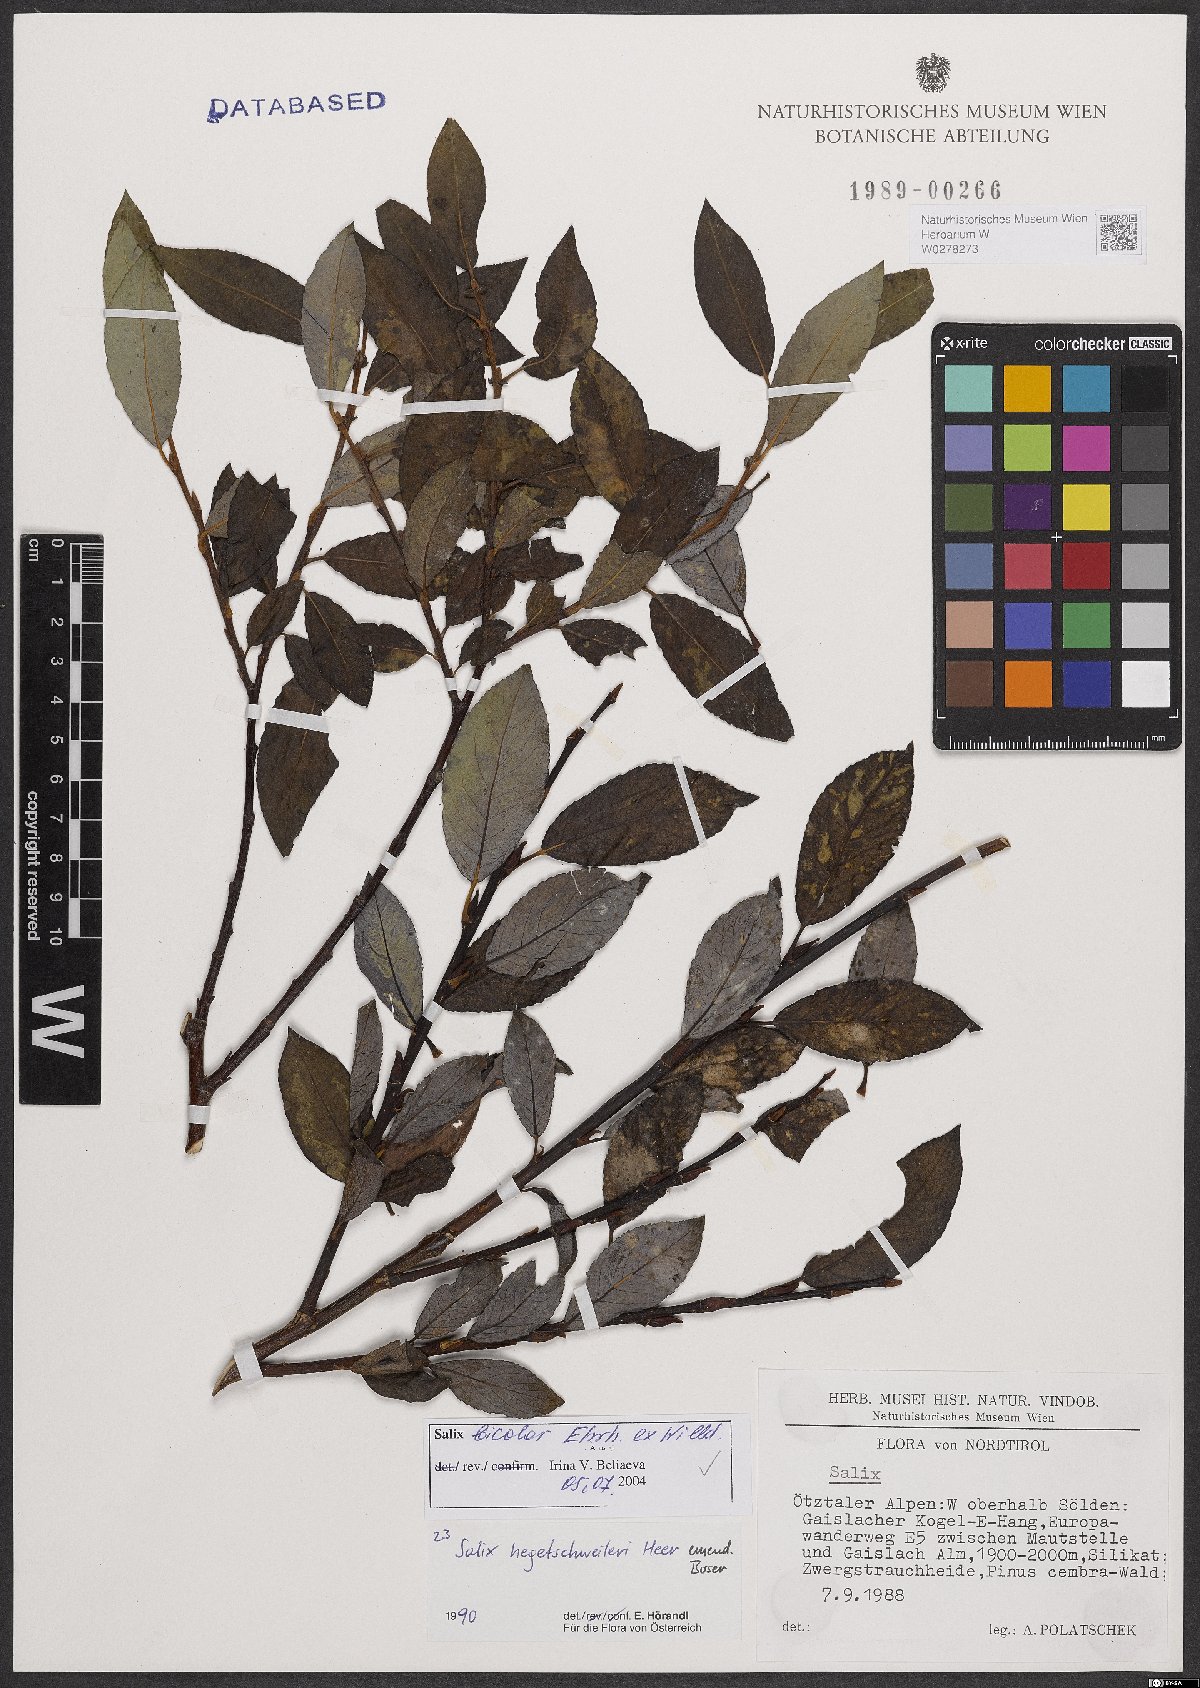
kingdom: Plantae
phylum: Tracheophyta
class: Magnoliopsida
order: Malpighiales
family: Salicaceae
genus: Salix
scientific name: Salix bicolor
